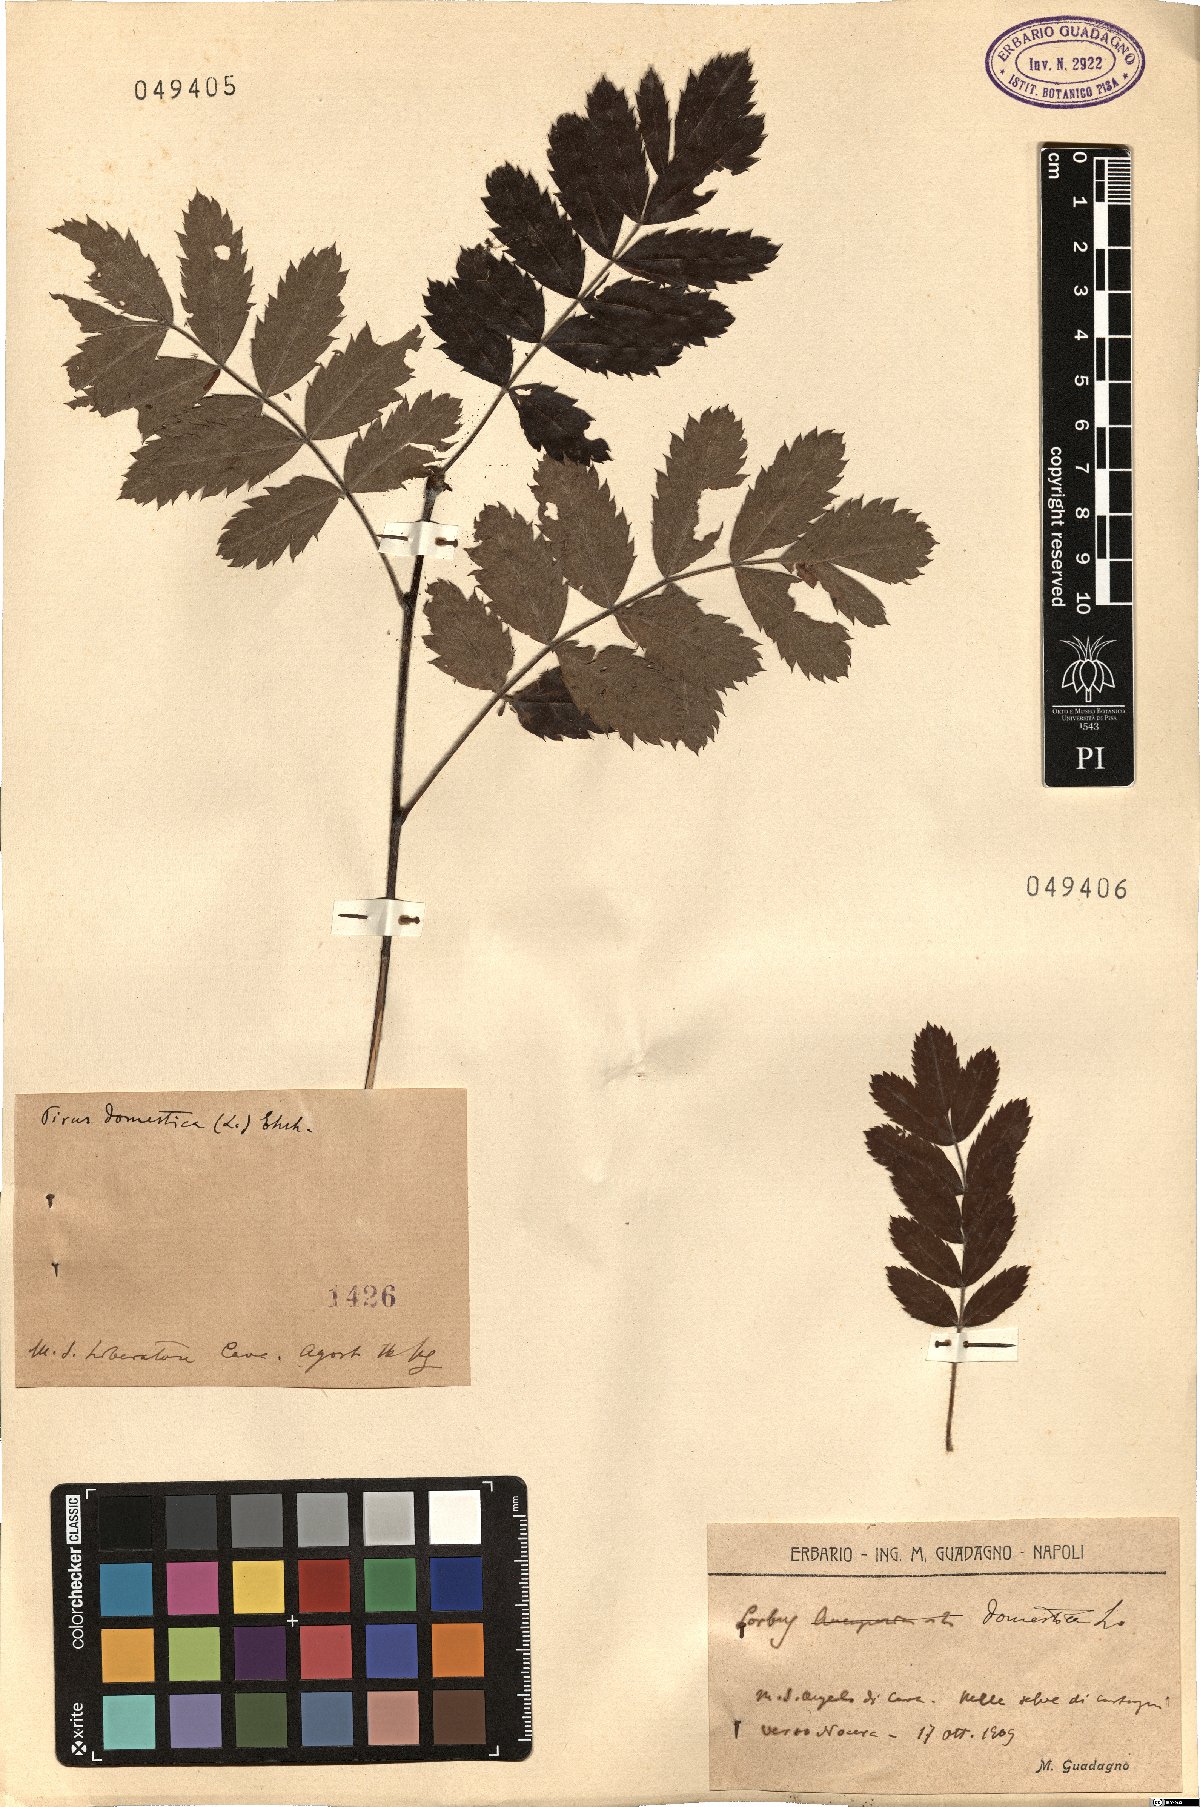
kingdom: Plantae
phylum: Tracheophyta
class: Magnoliopsida
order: Rosales
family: Rosaceae
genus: Cormus
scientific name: Cormus domestica
